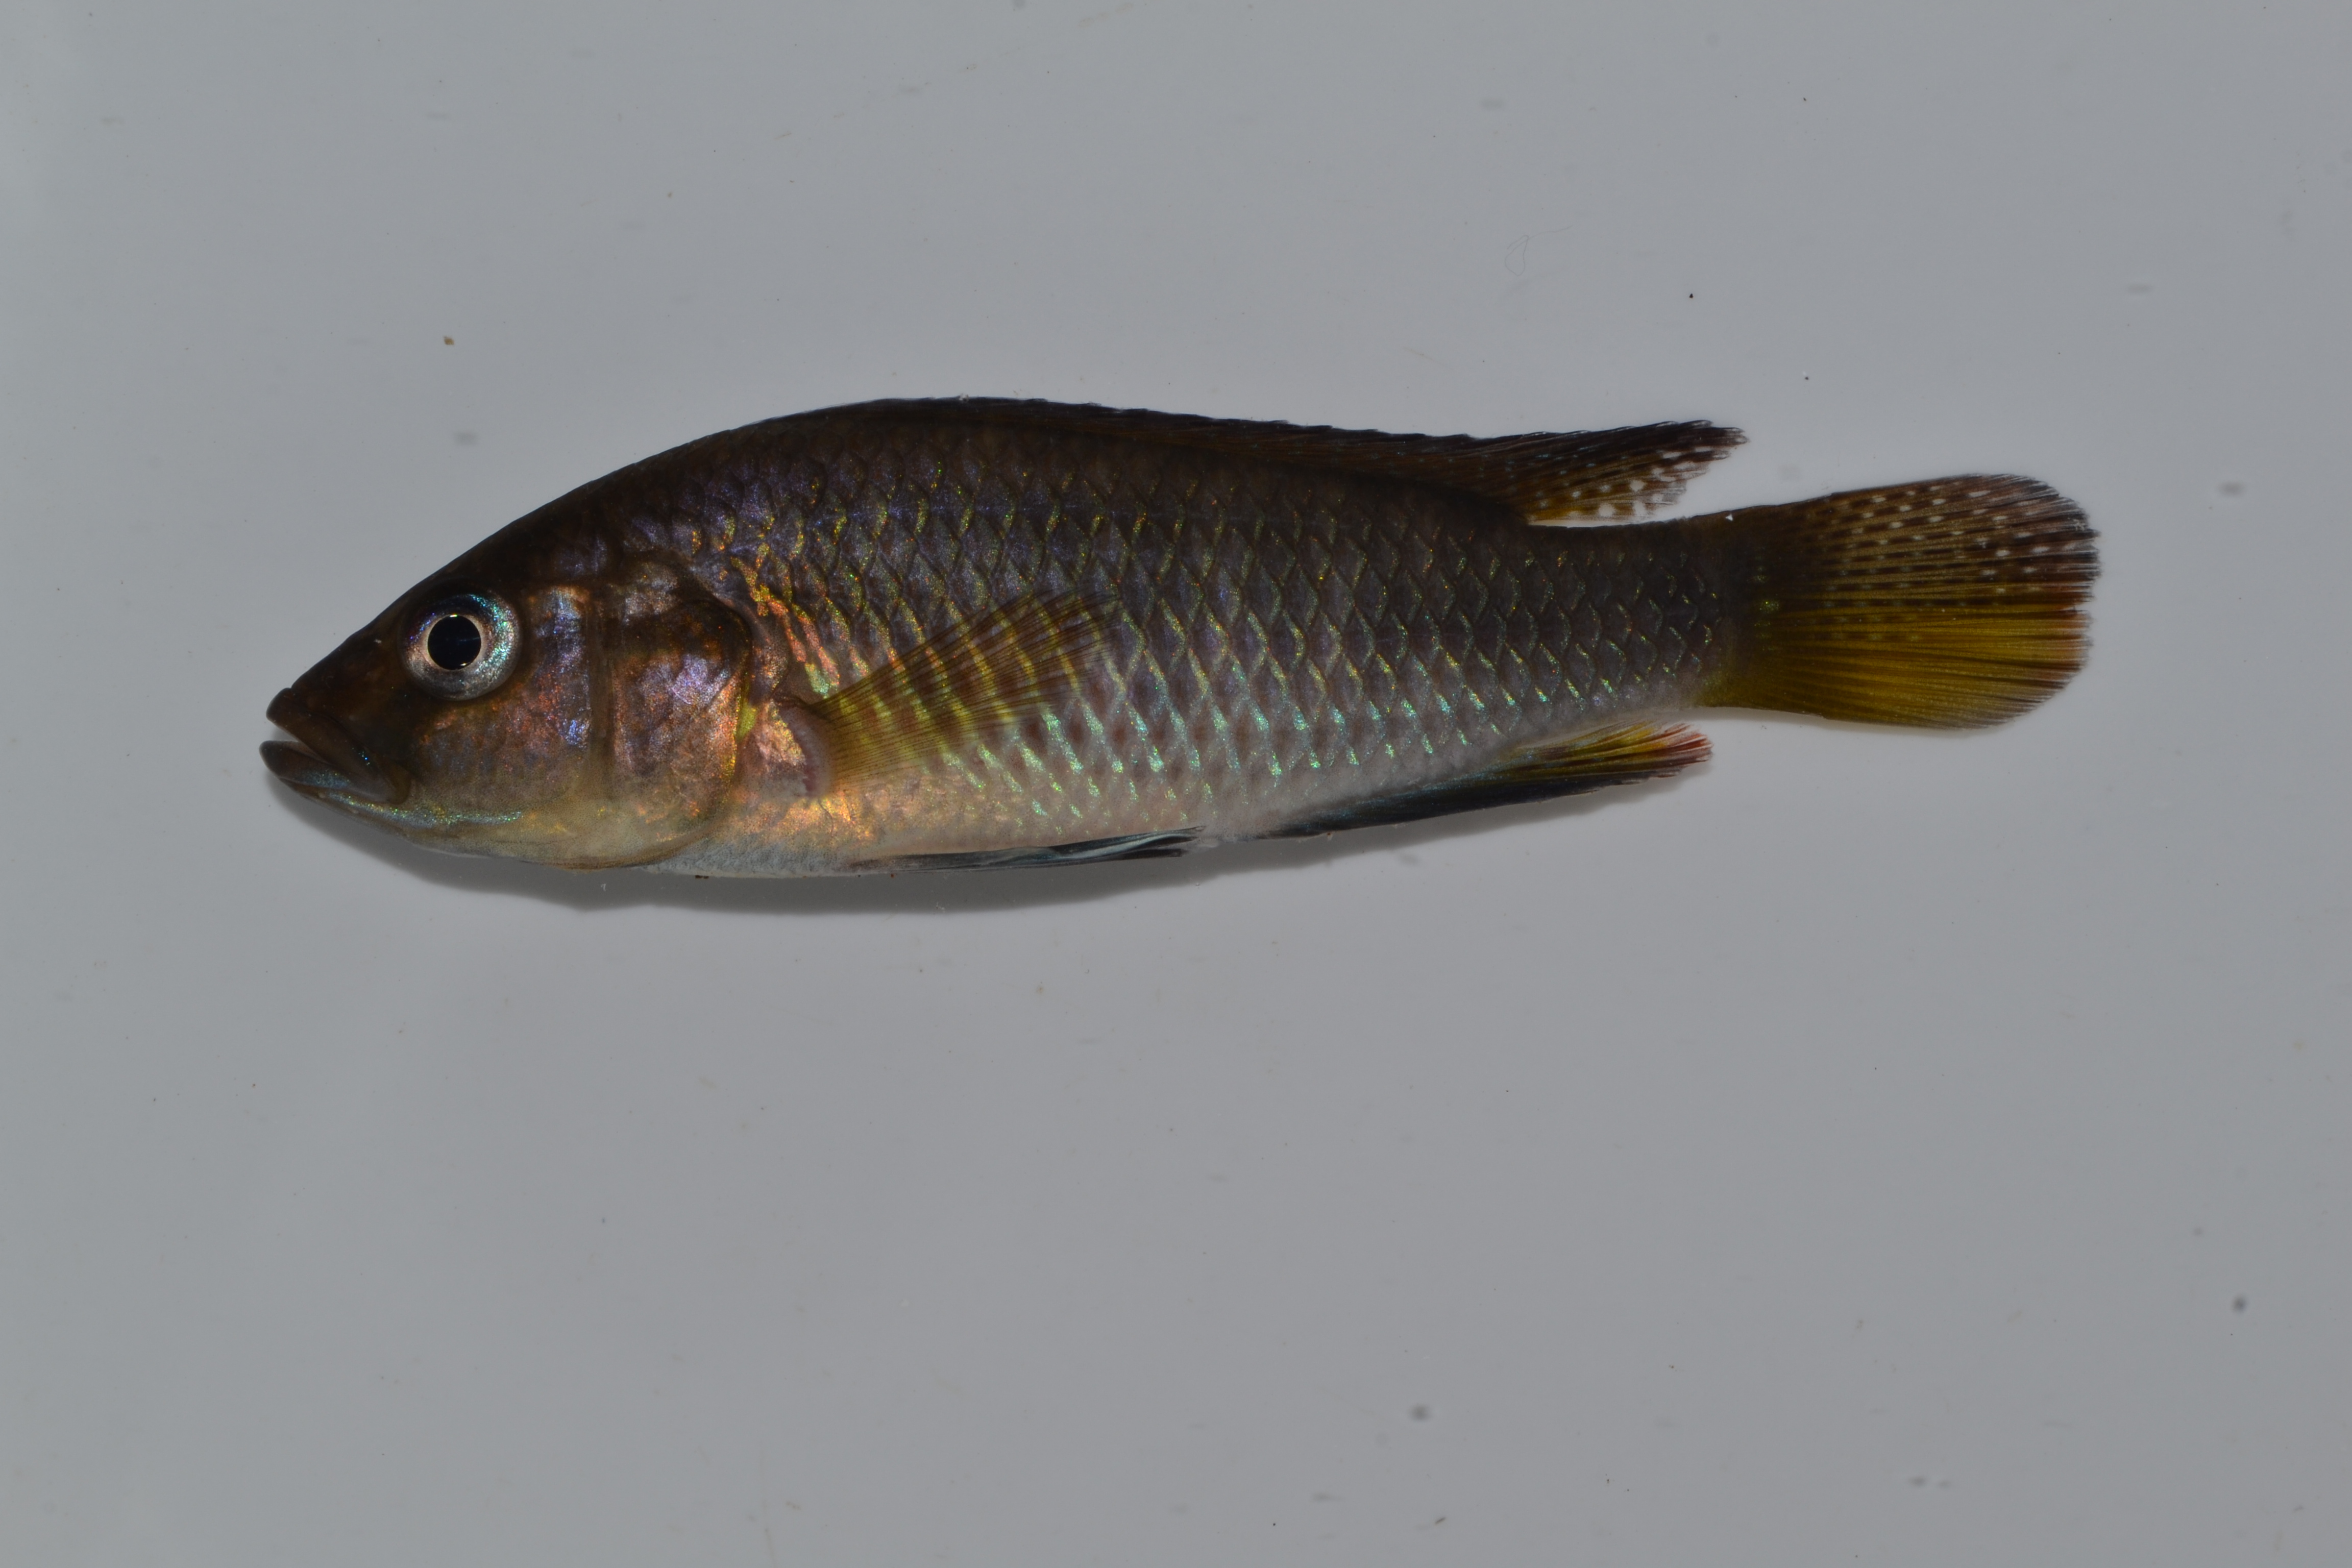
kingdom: Animalia
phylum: Chordata
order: Perciformes
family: Cichlidae
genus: Pseudocrenilabrus
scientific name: Pseudocrenilabrus philander
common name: Southern mouthbrooder
